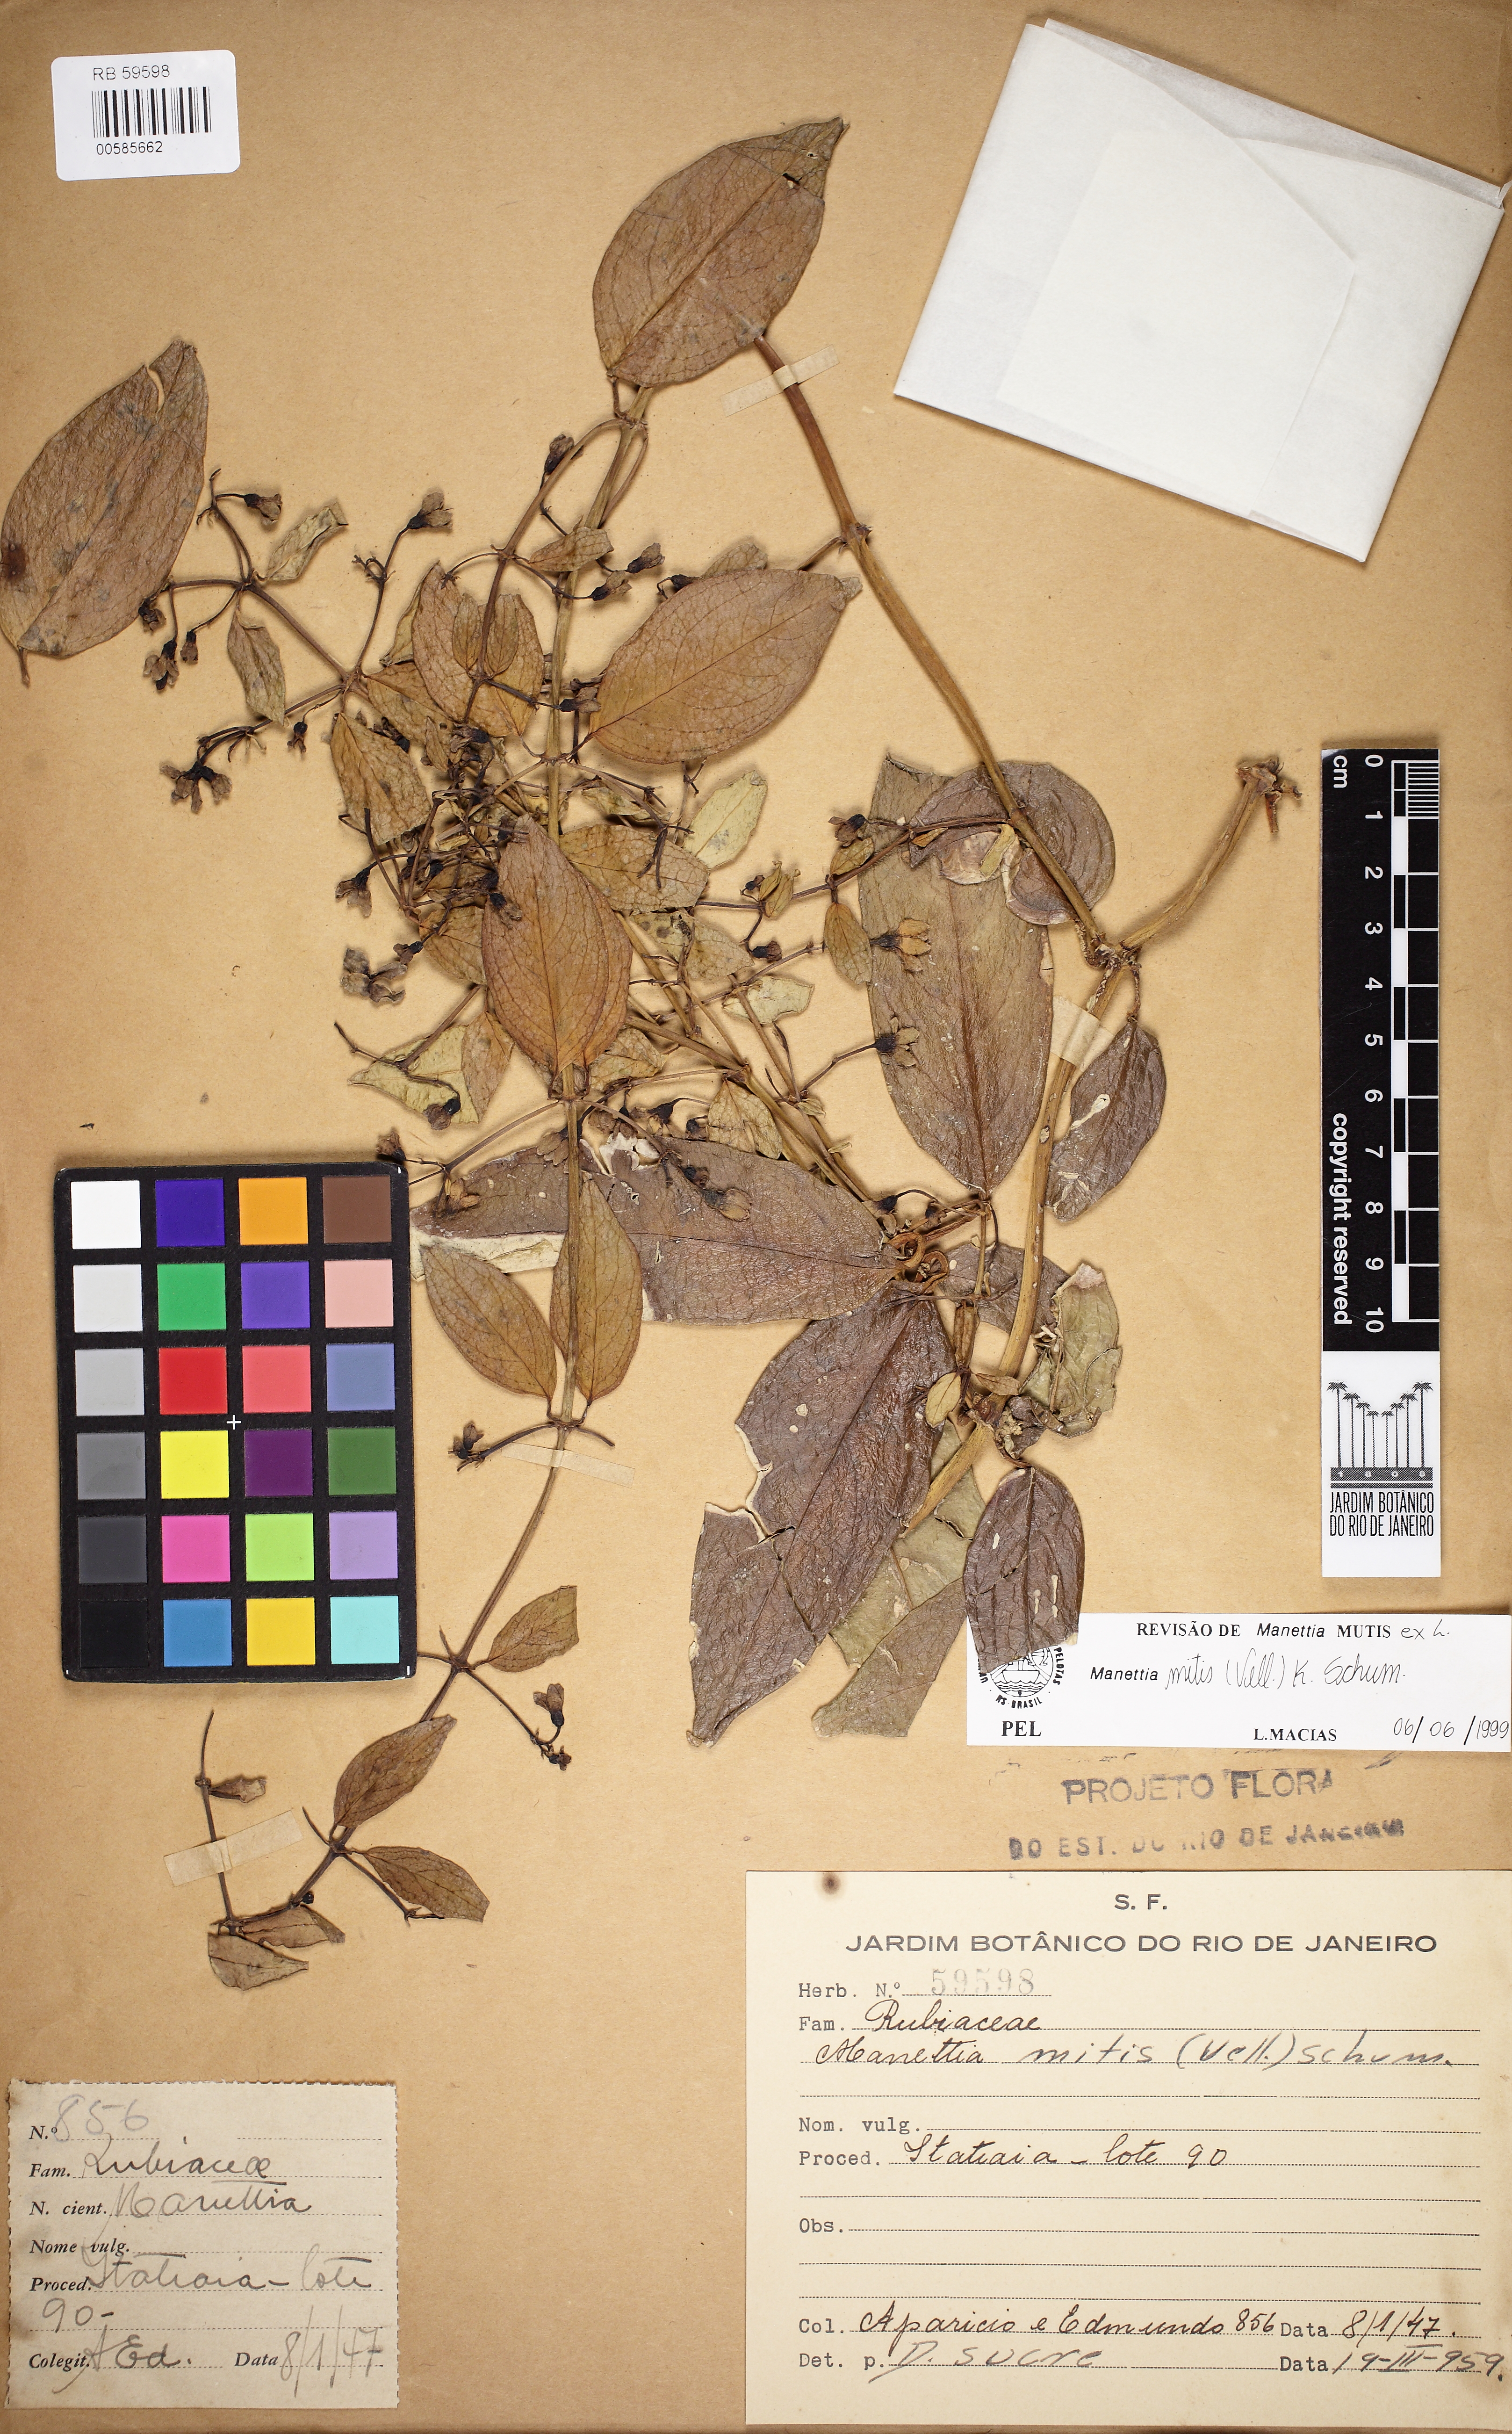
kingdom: Plantae
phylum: Tracheophyta
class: Magnoliopsida
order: Gentianales
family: Rubiaceae
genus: Manettia
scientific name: Manettia mitis
